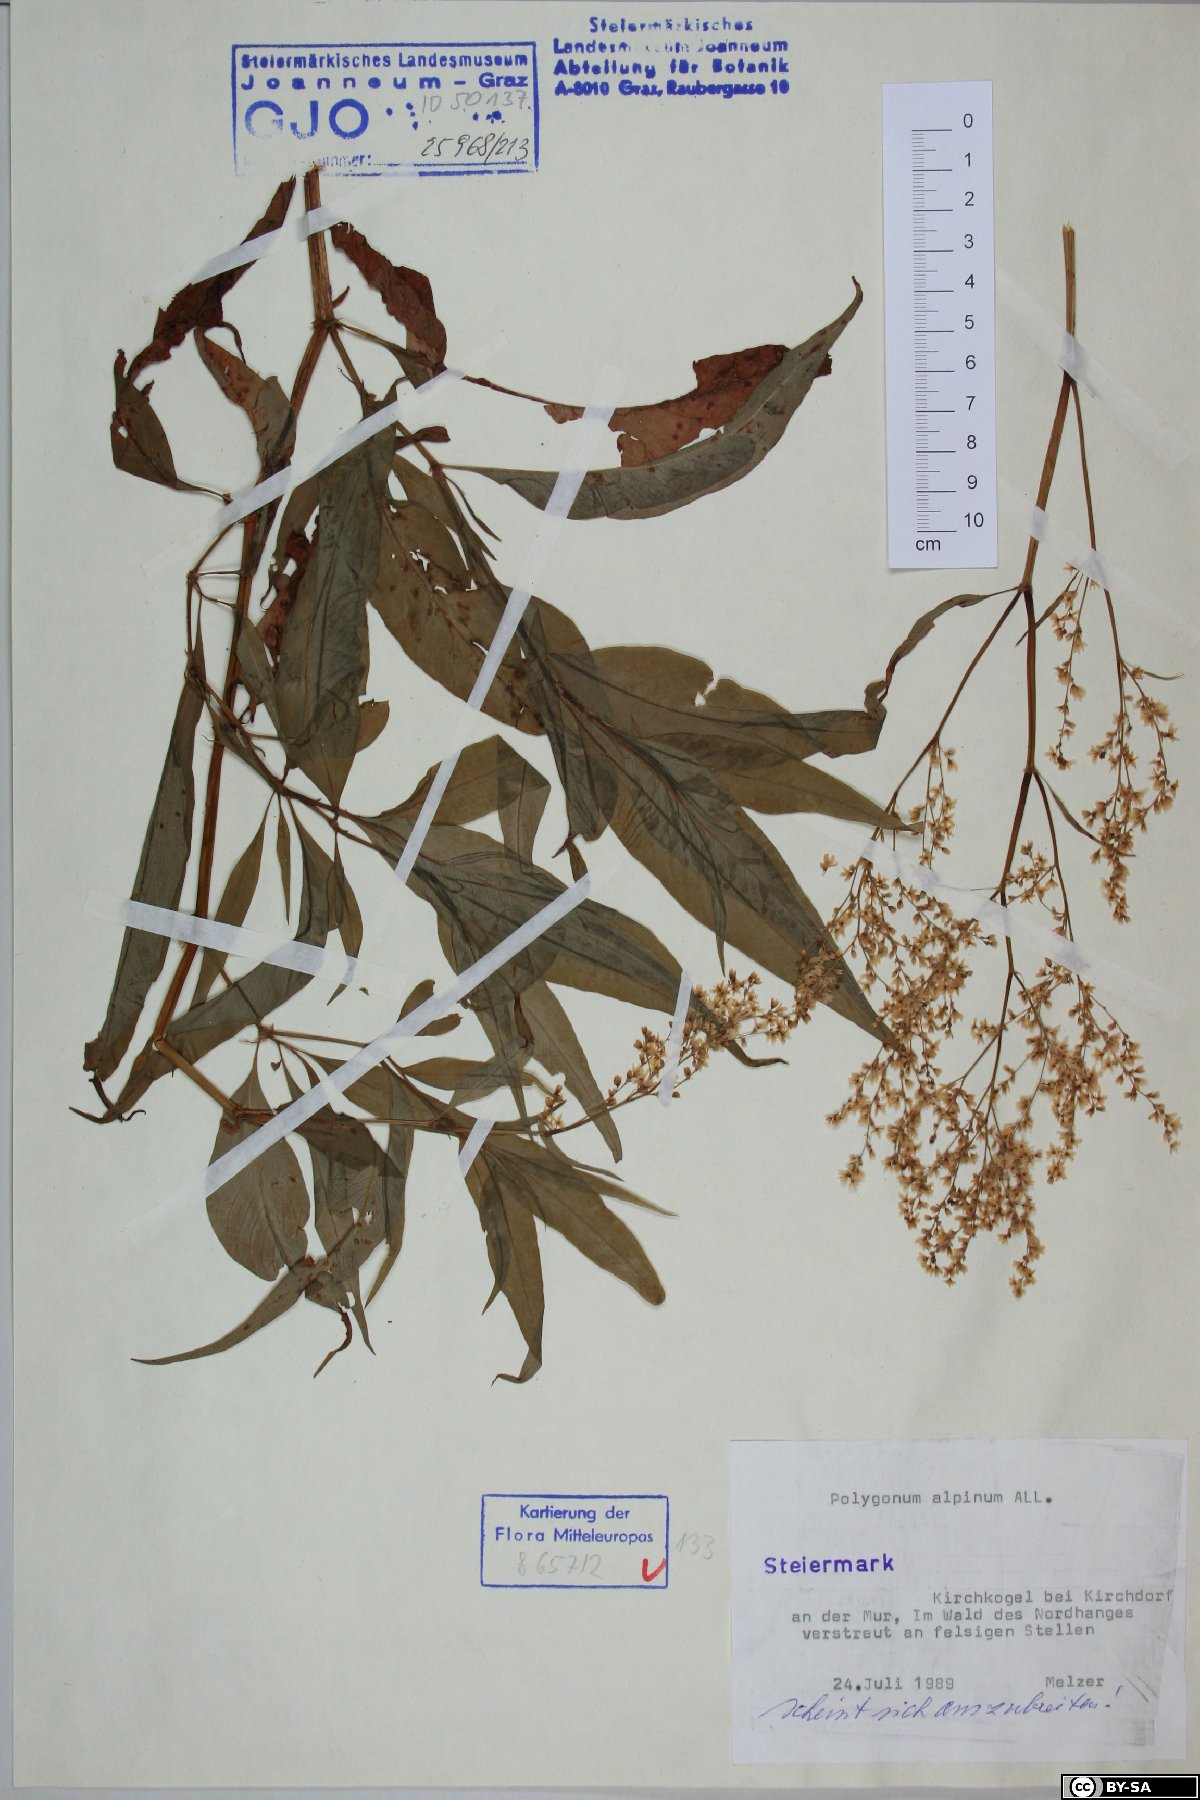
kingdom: Plantae
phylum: Tracheophyta
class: Magnoliopsida
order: Caryophyllales
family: Polygonaceae
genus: Koenigia
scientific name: Koenigia alpina
